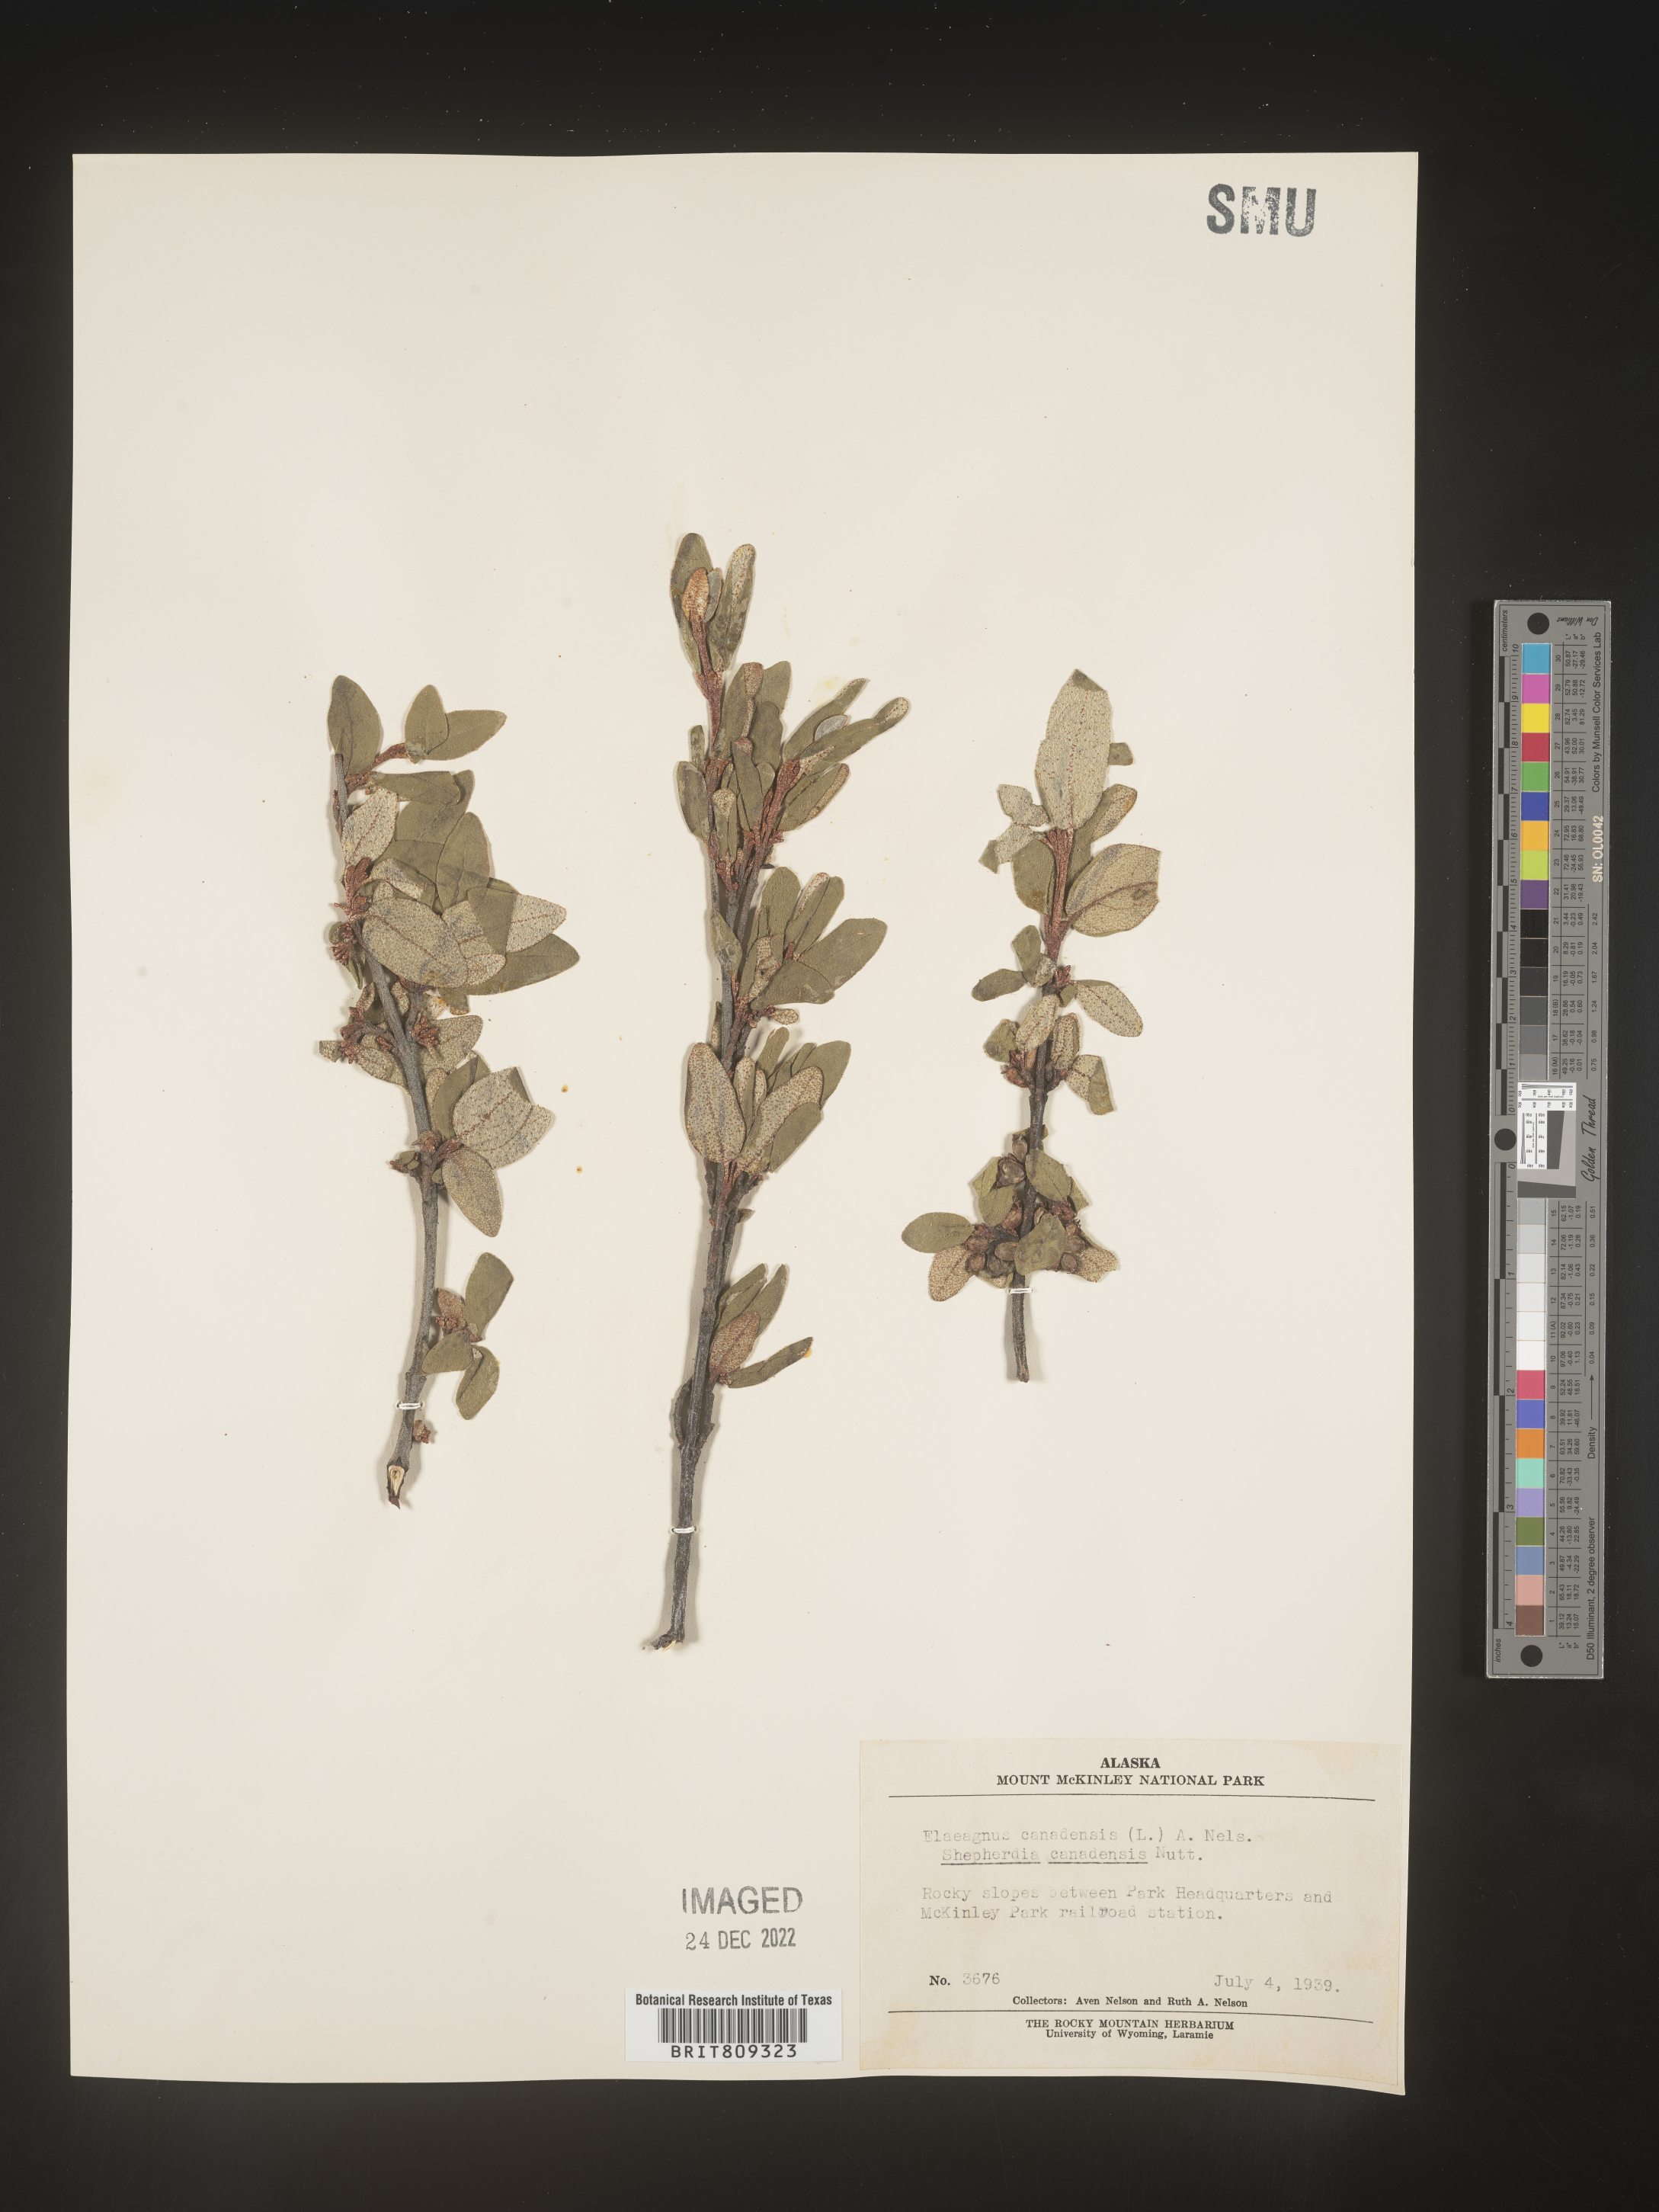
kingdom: Plantae
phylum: Tracheophyta
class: Magnoliopsida
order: Rosales
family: Elaeagnaceae
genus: Shepherdia
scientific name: Shepherdia canadensis
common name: Soapberry
